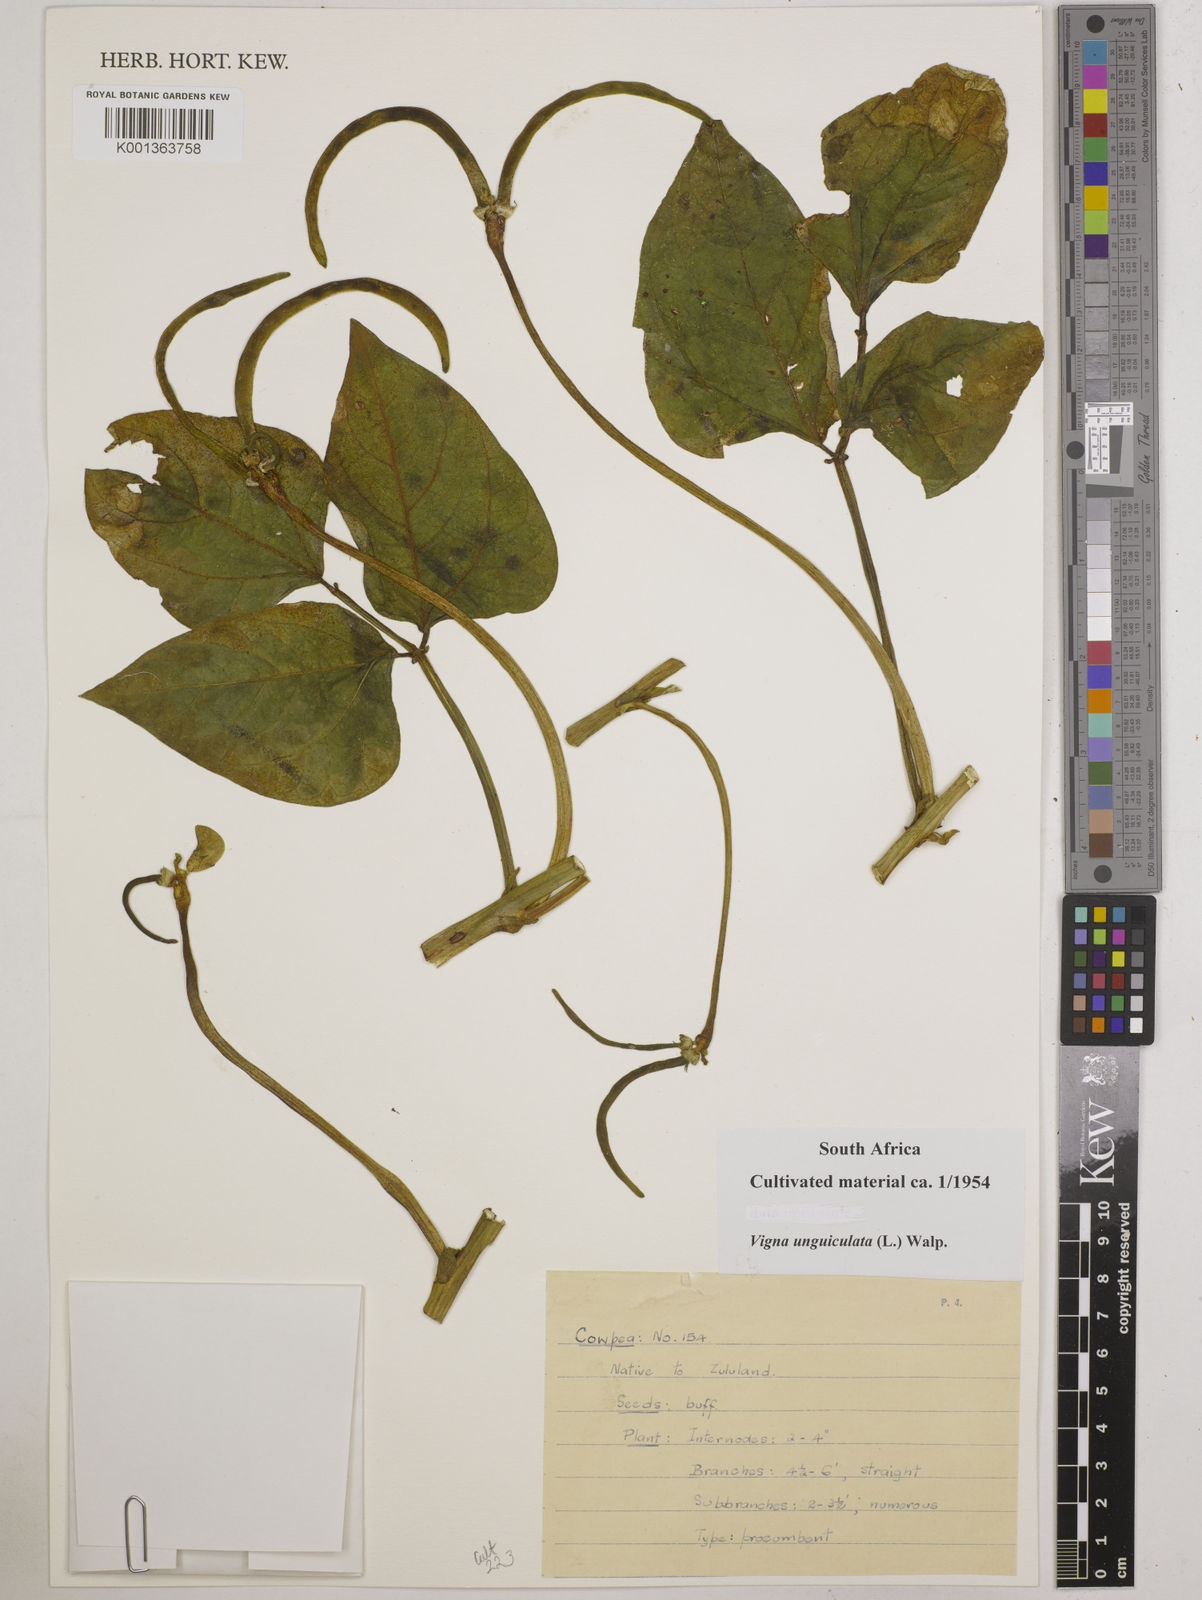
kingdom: Plantae
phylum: Tracheophyta
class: Magnoliopsida
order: Fabales
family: Fabaceae
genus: Vigna
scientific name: Vigna unguiculata
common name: Cowpea
